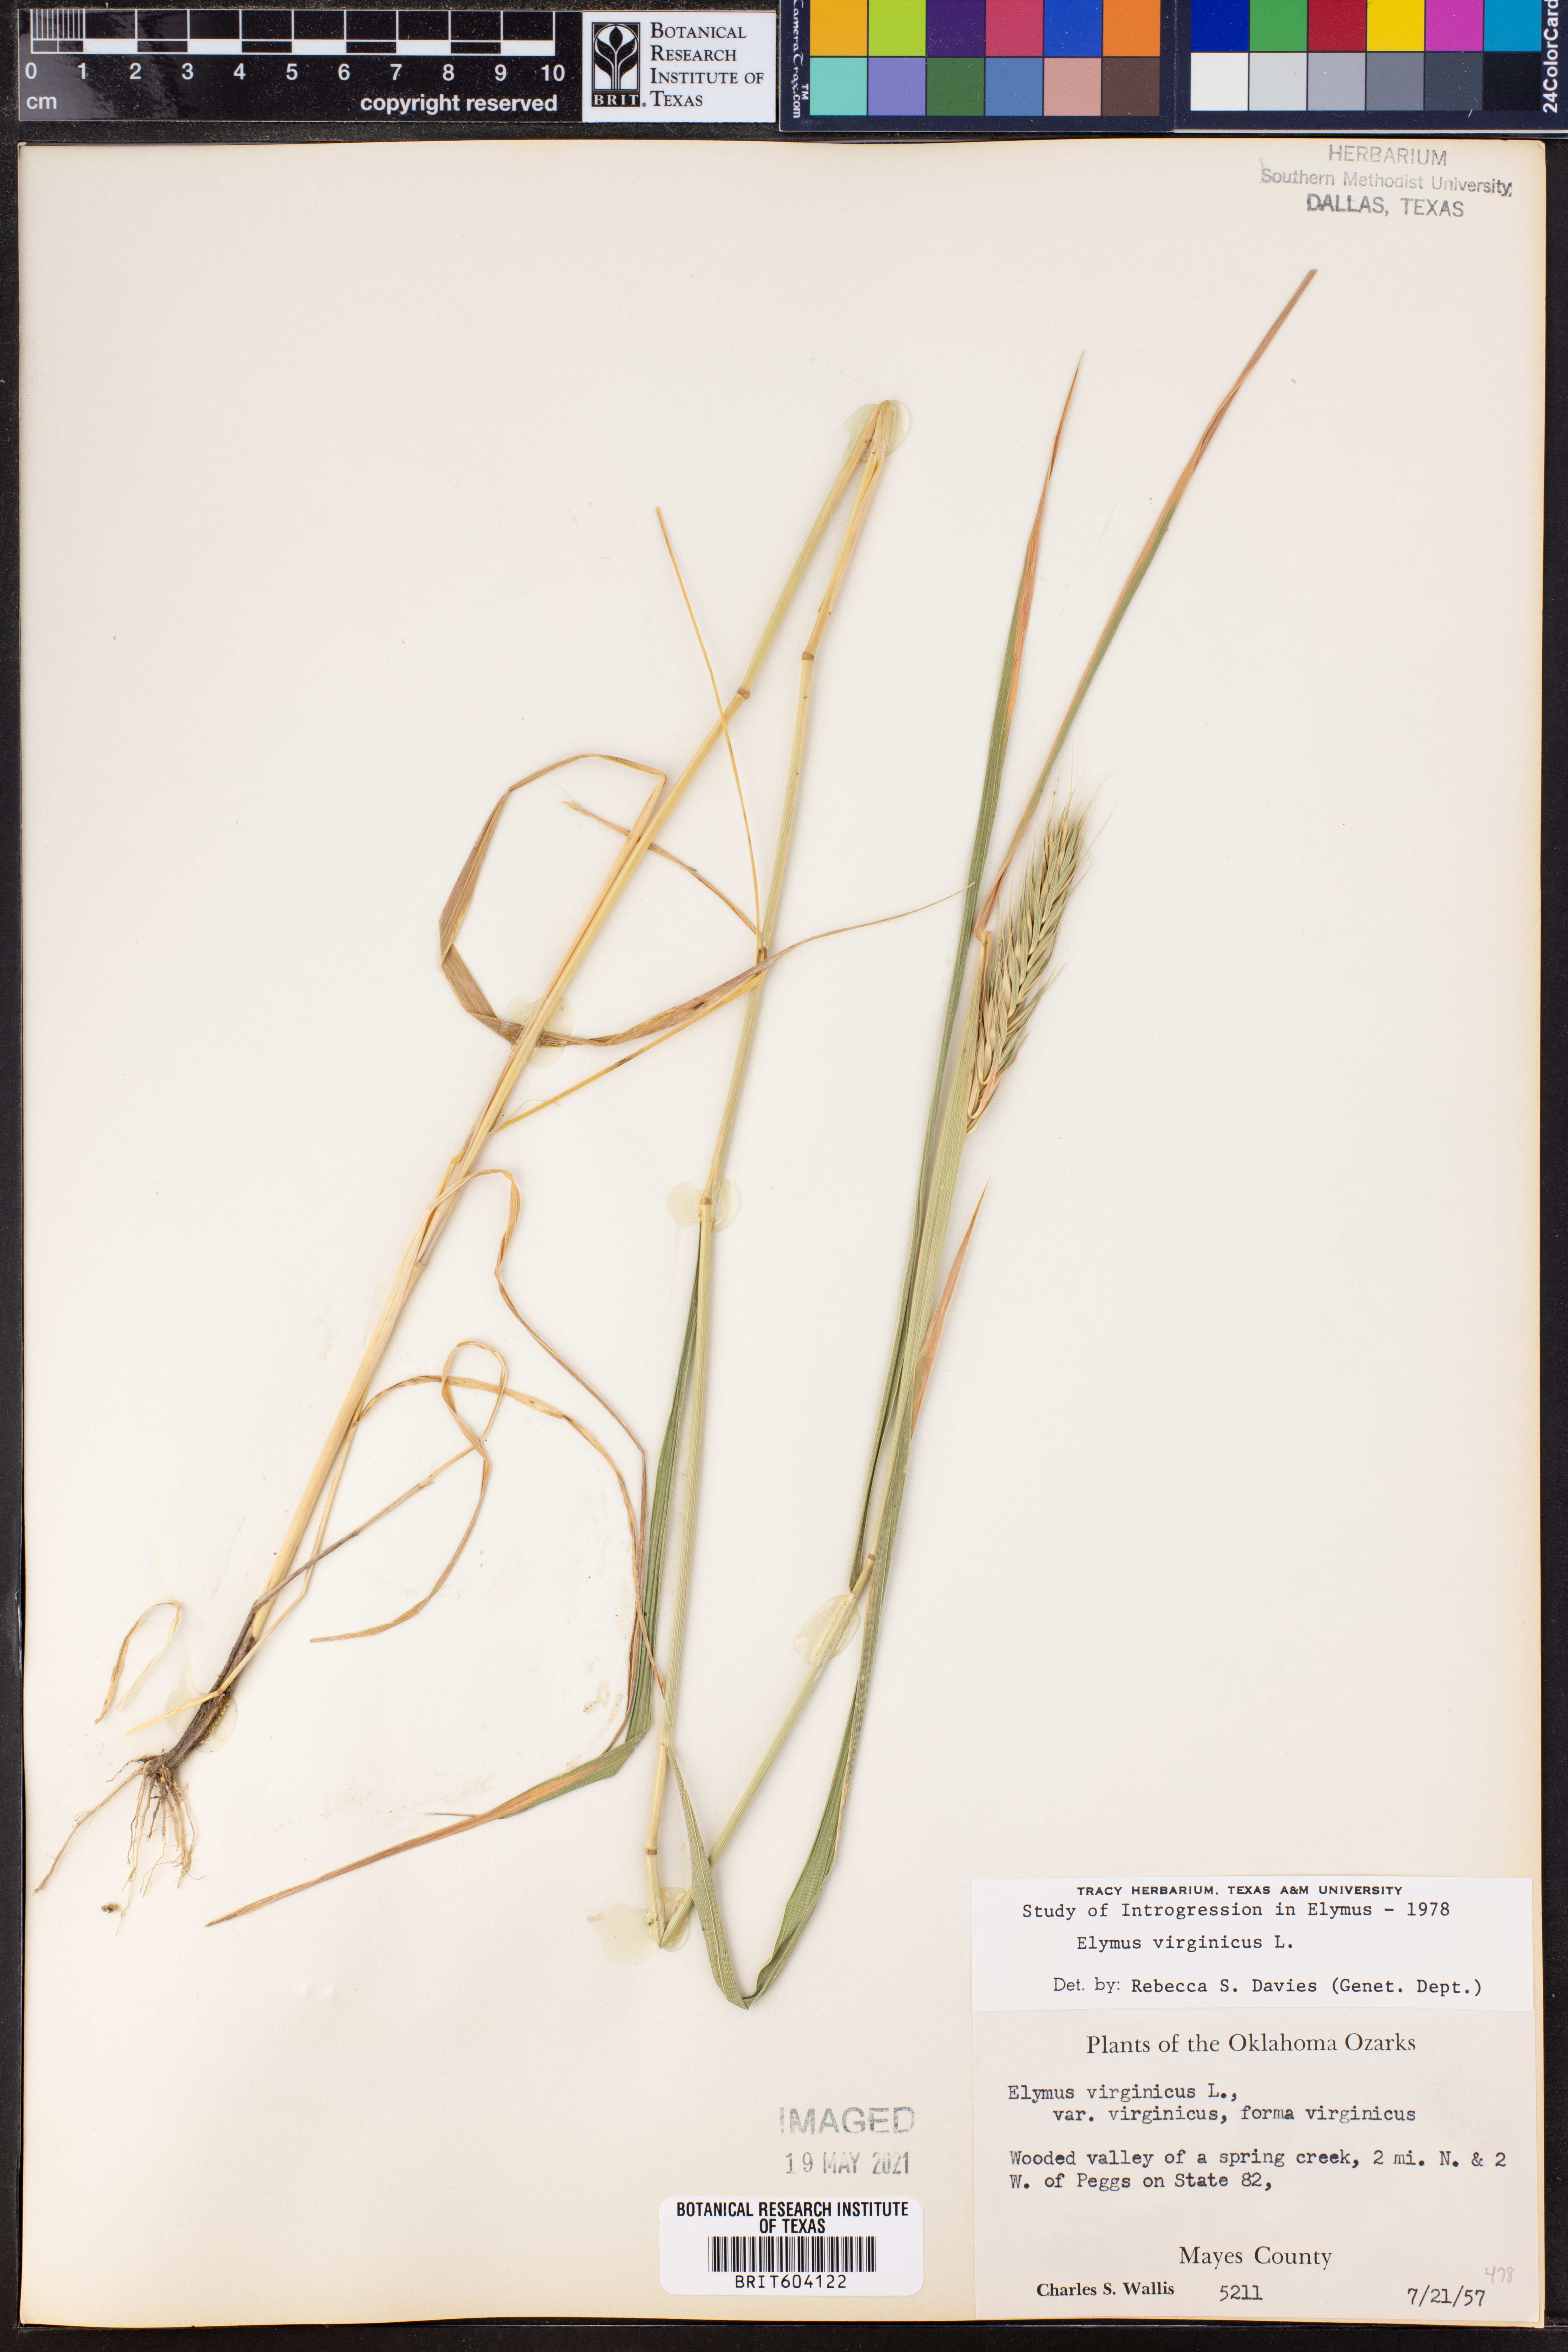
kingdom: Plantae
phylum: Tracheophyta
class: Liliopsida
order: Poales
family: Poaceae
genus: Elymus
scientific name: Elymus virginicus
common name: Common eastern wildrye
